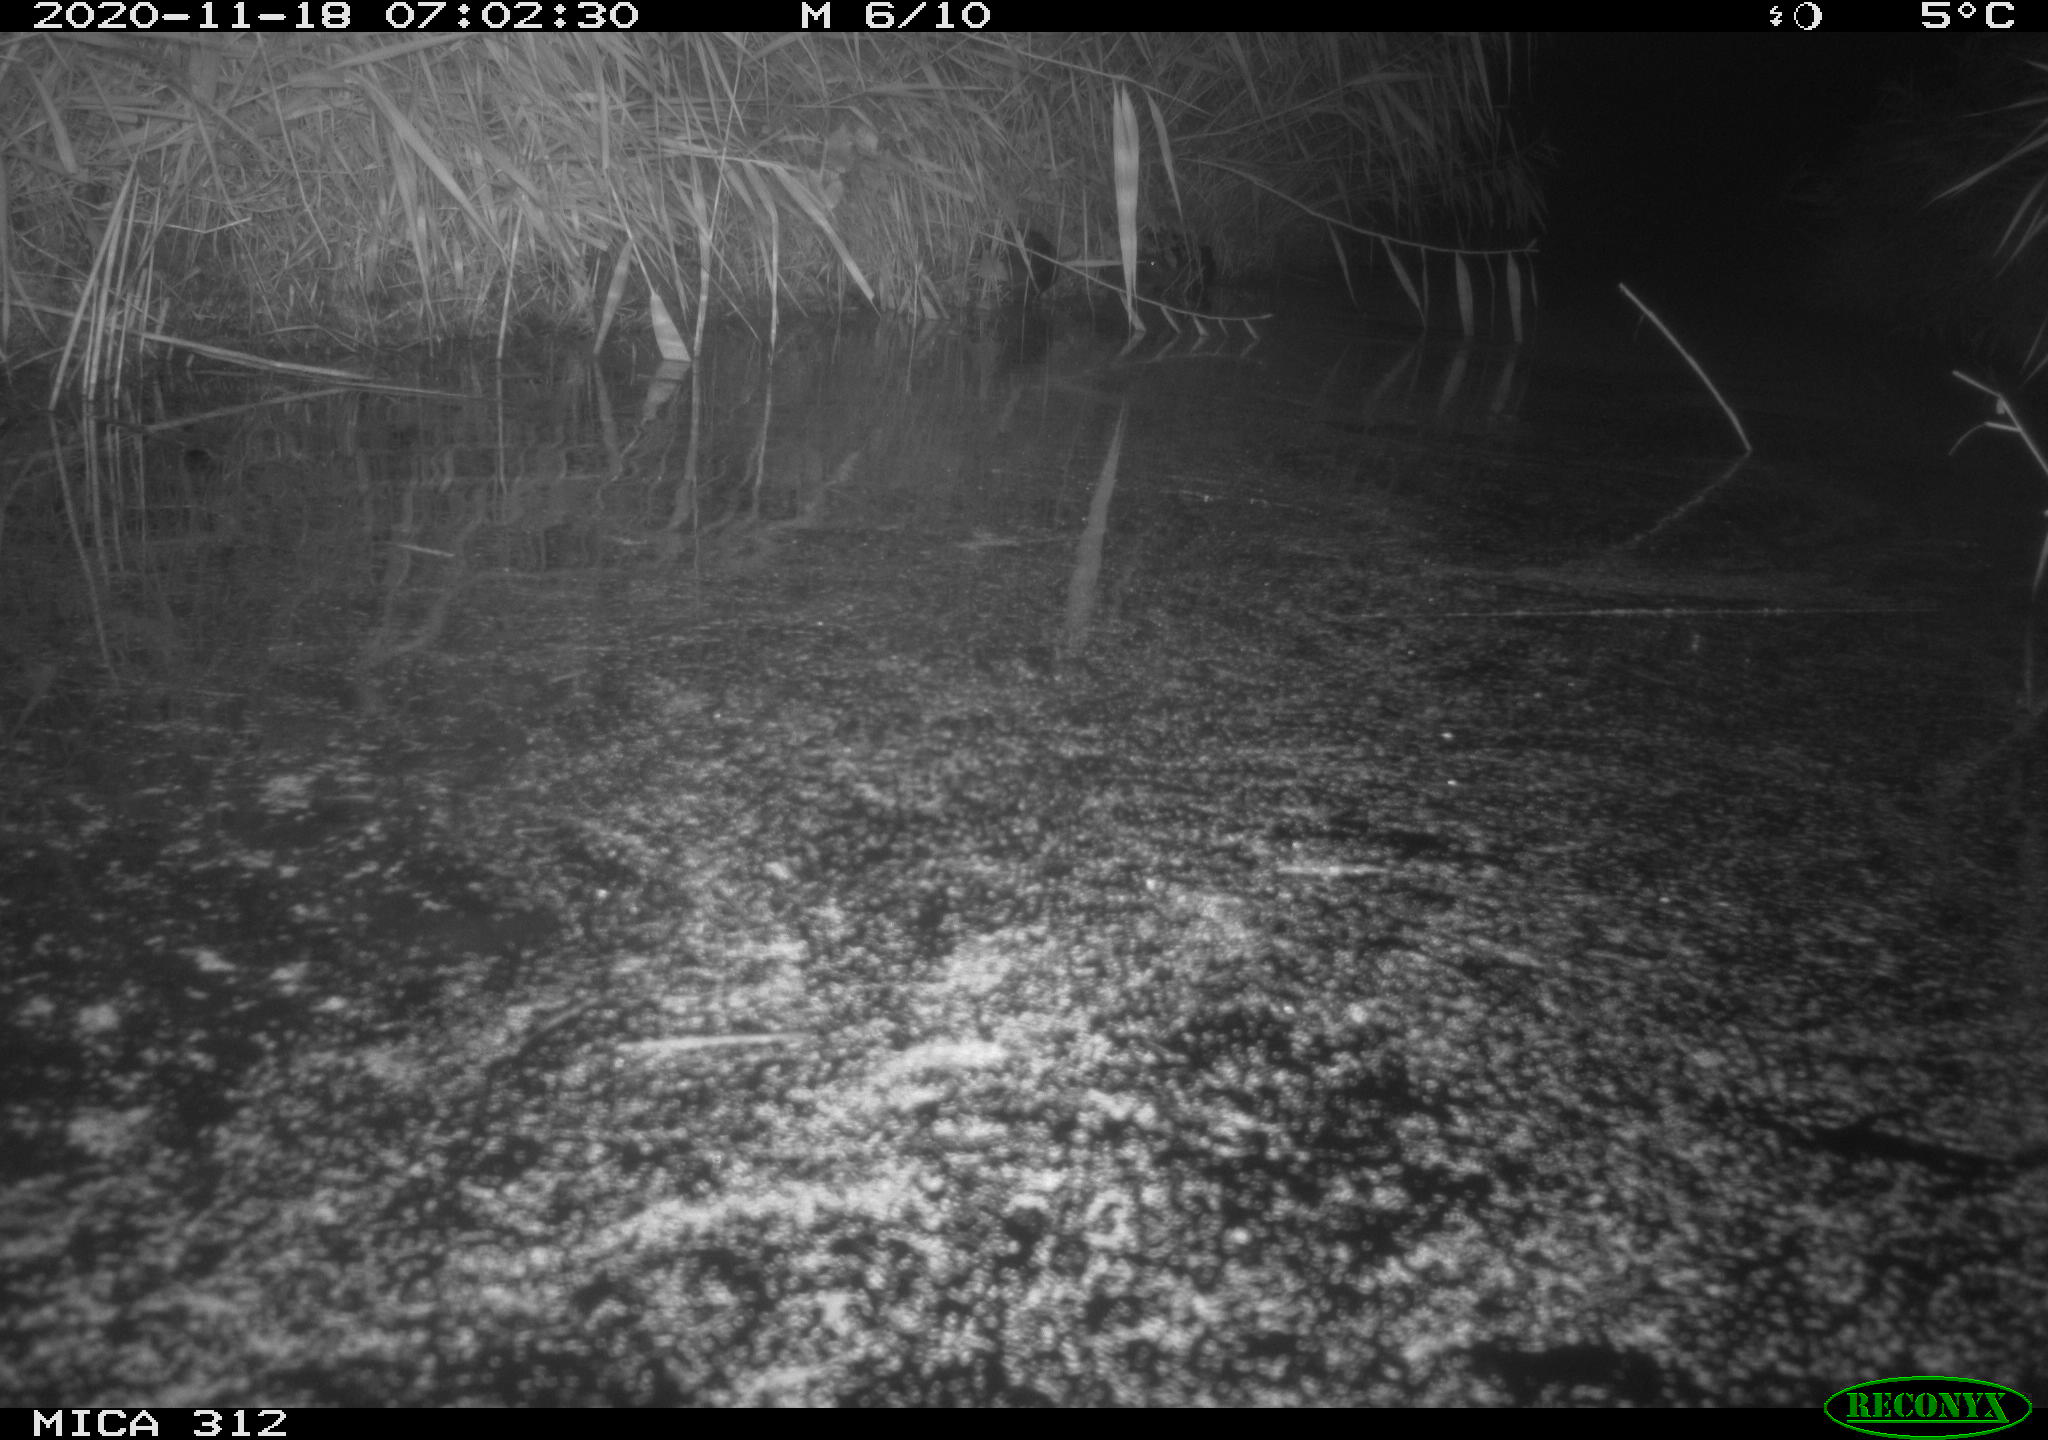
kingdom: Animalia
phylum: Chordata
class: Mammalia
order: Rodentia
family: Muridae
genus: Rattus
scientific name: Rattus norvegicus
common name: Brown rat
